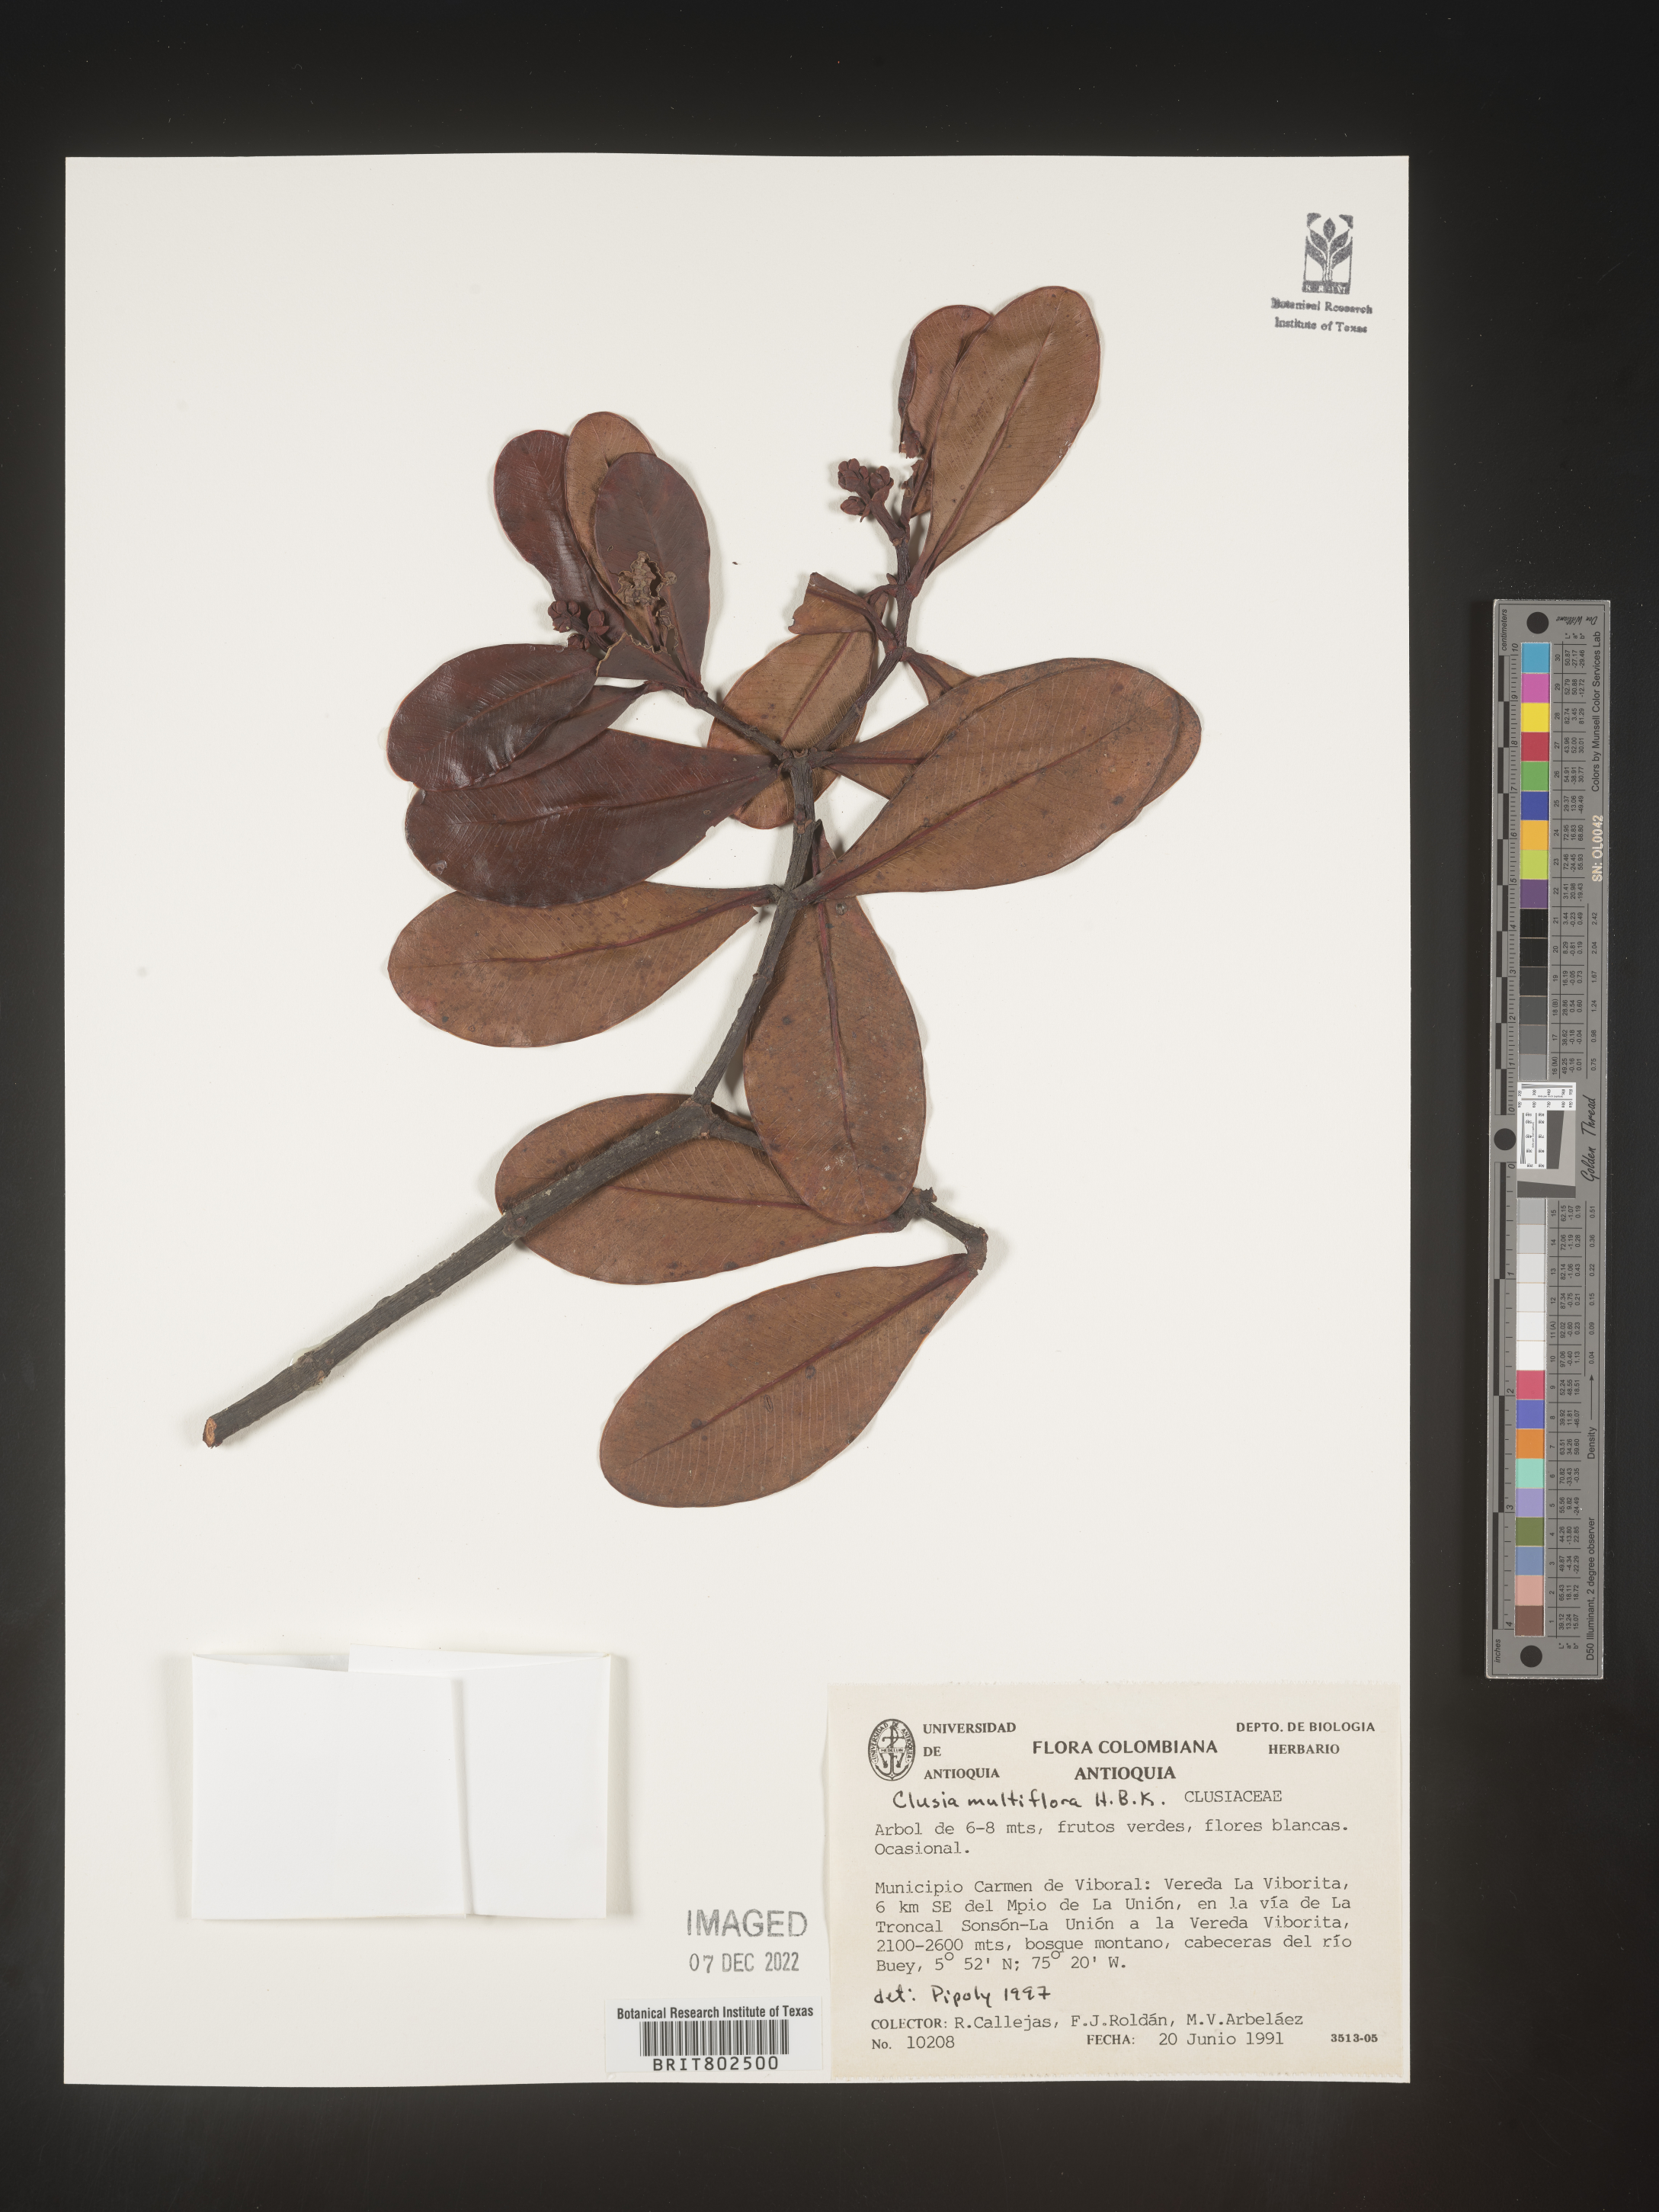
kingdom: Plantae
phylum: Tracheophyta
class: Magnoliopsida
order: Malpighiales
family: Clusiaceae
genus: Clusia
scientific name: Clusia multiflora
